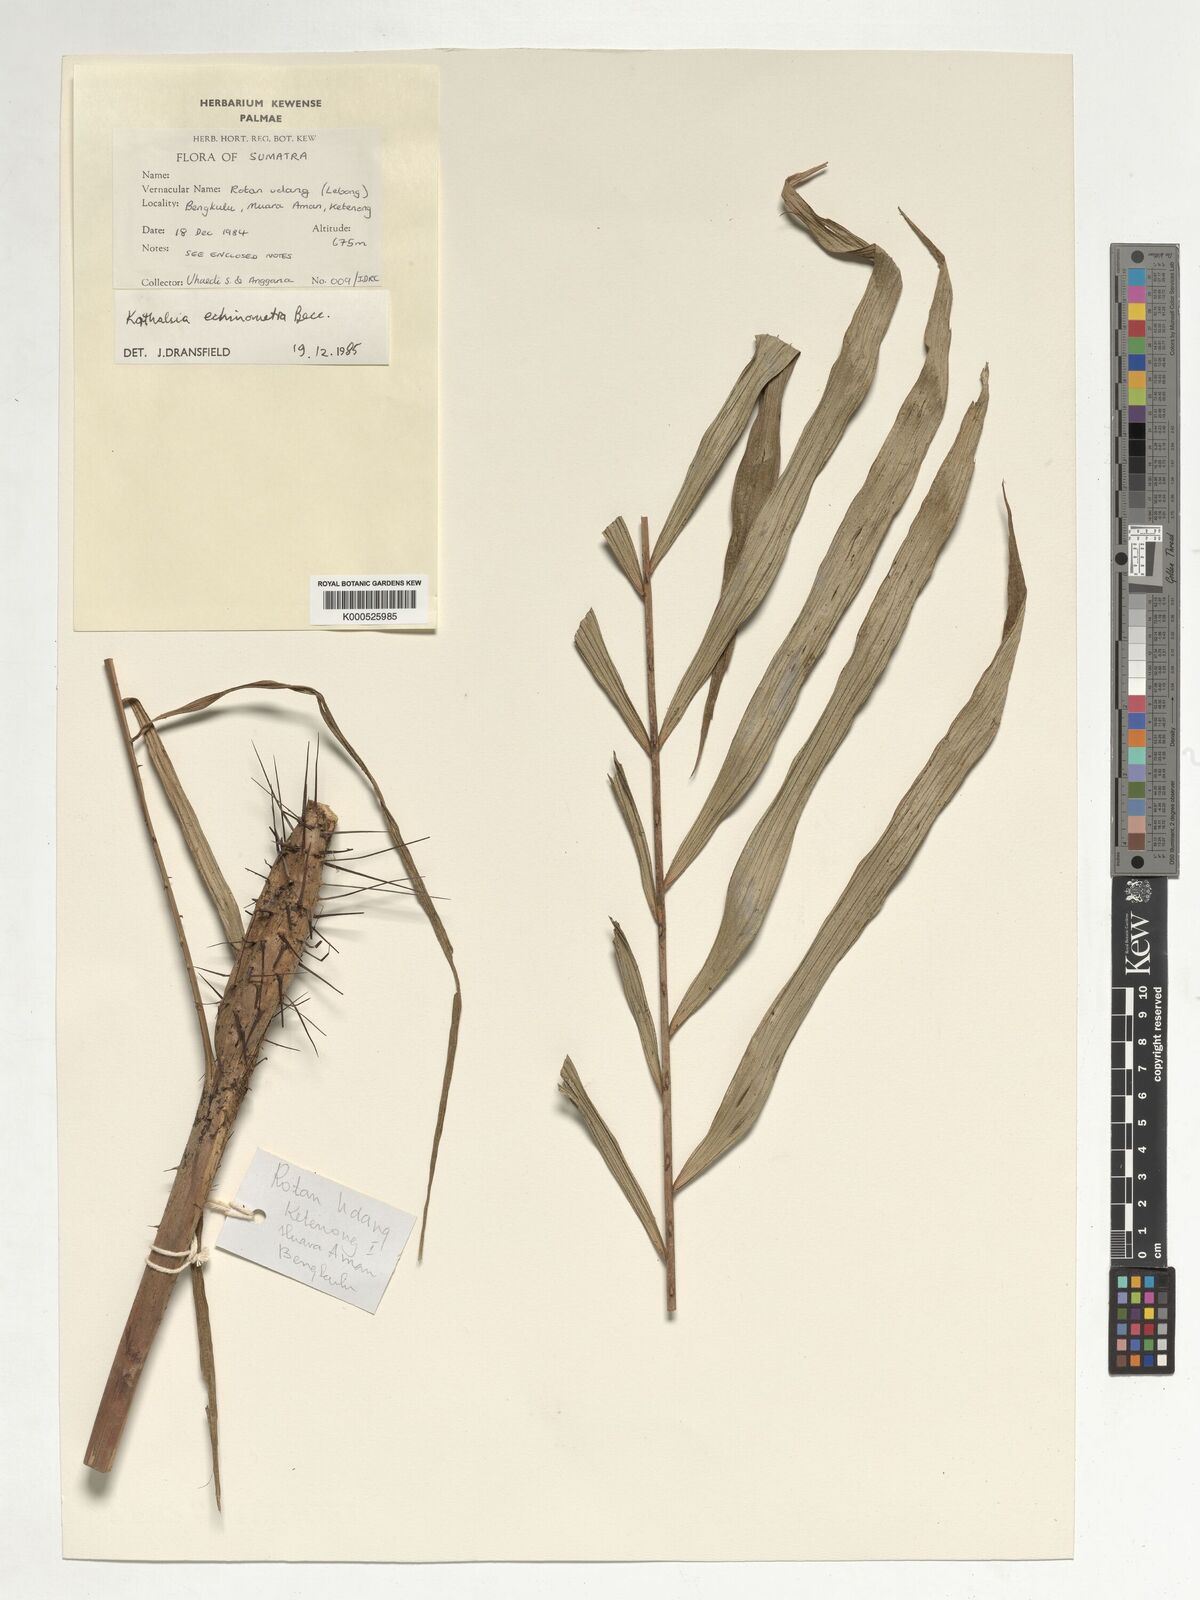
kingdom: Plantae
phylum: Tracheophyta
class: Liliopsida
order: Arecales
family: Arecaceae
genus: Korthalsia
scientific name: Korthalsia echinometra
